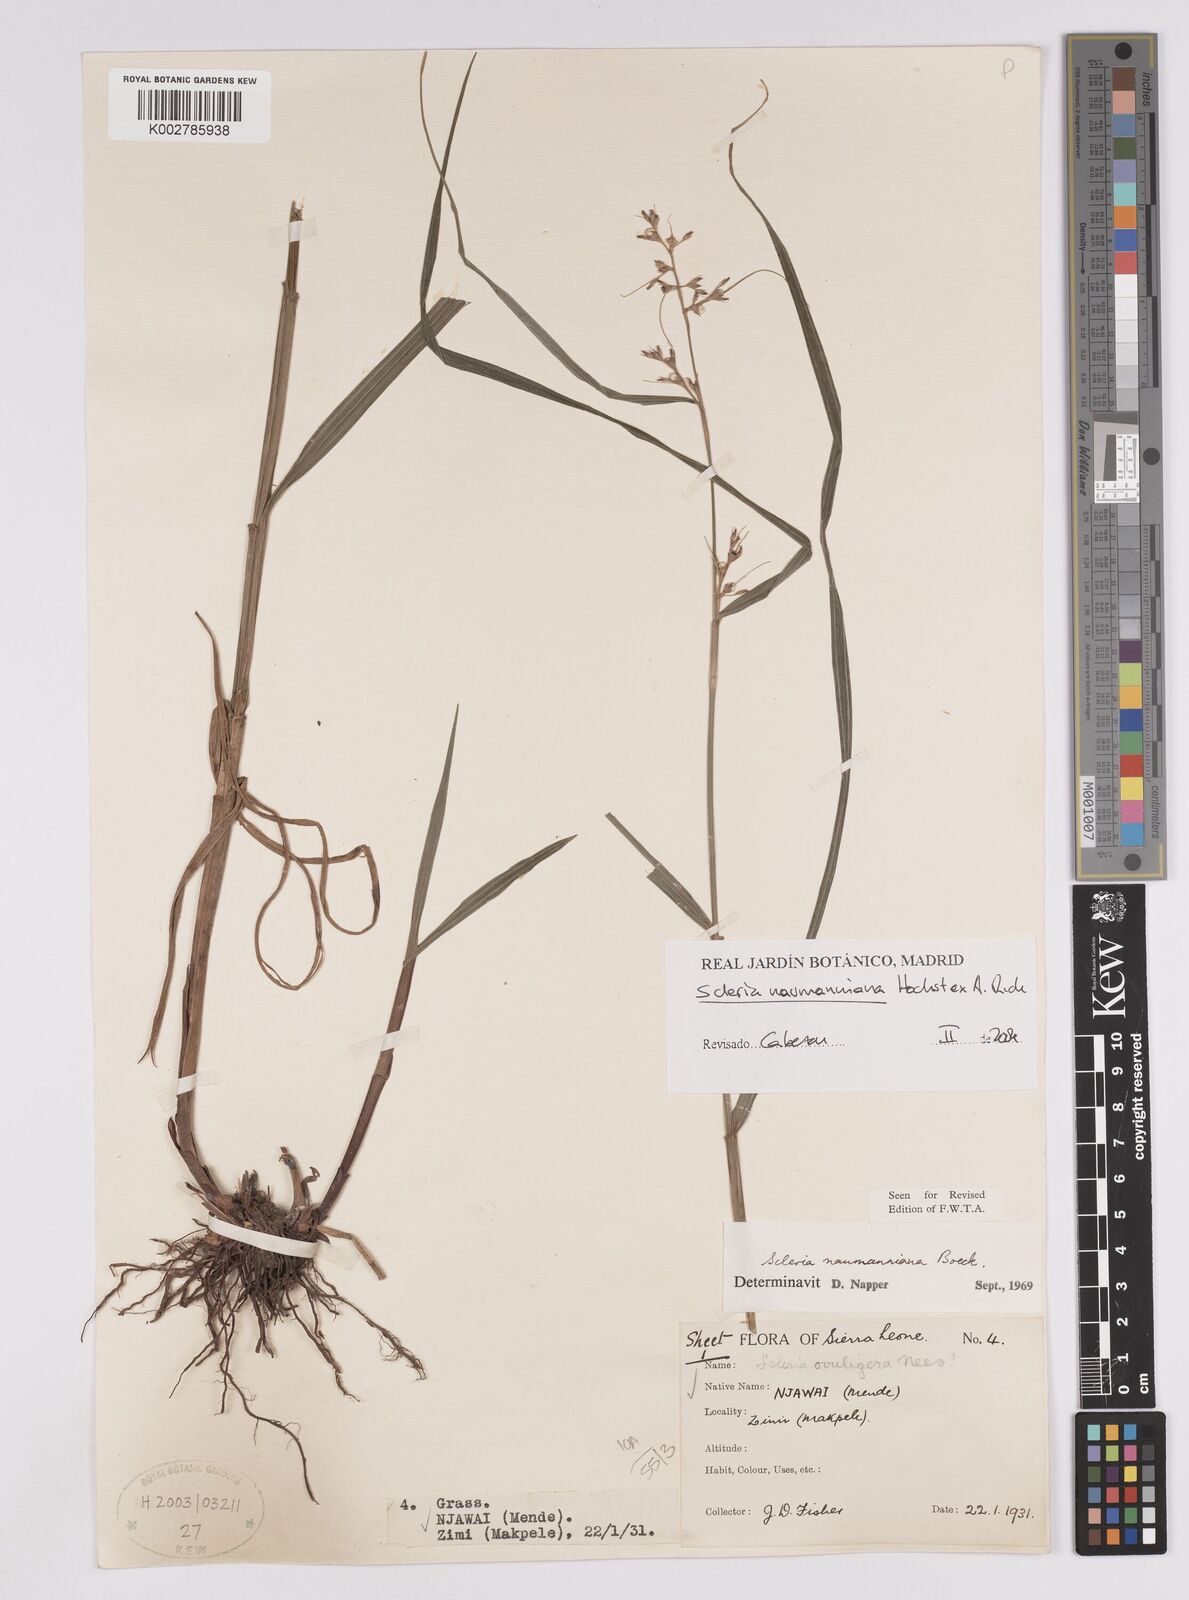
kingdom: Plantae
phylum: Tracheophyta
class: Liliopsida
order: Poales
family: Cyperaceae
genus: Scleria
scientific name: Scleria naumanniana
